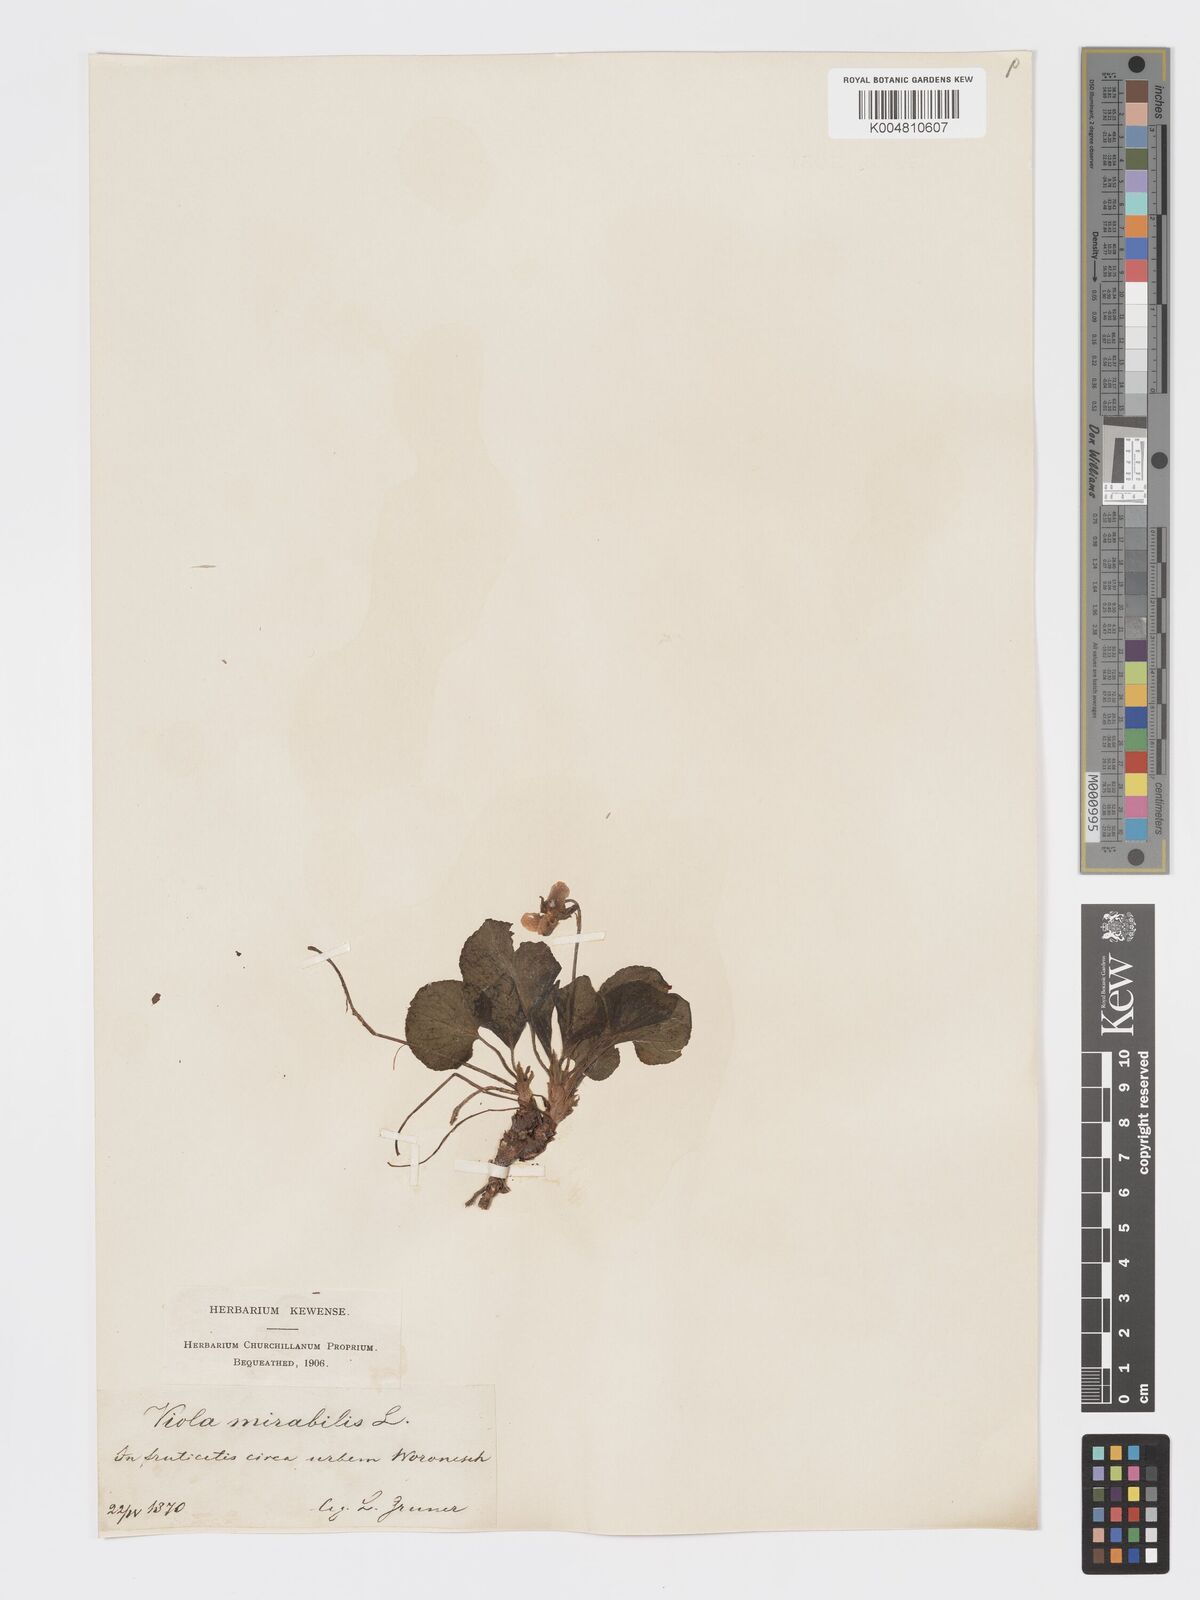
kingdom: Plantae
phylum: Tracheophyta
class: Magnoliopsida
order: Malpighiales
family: Violaceae
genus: Viola
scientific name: Viola mirabilis
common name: Wonder violet
